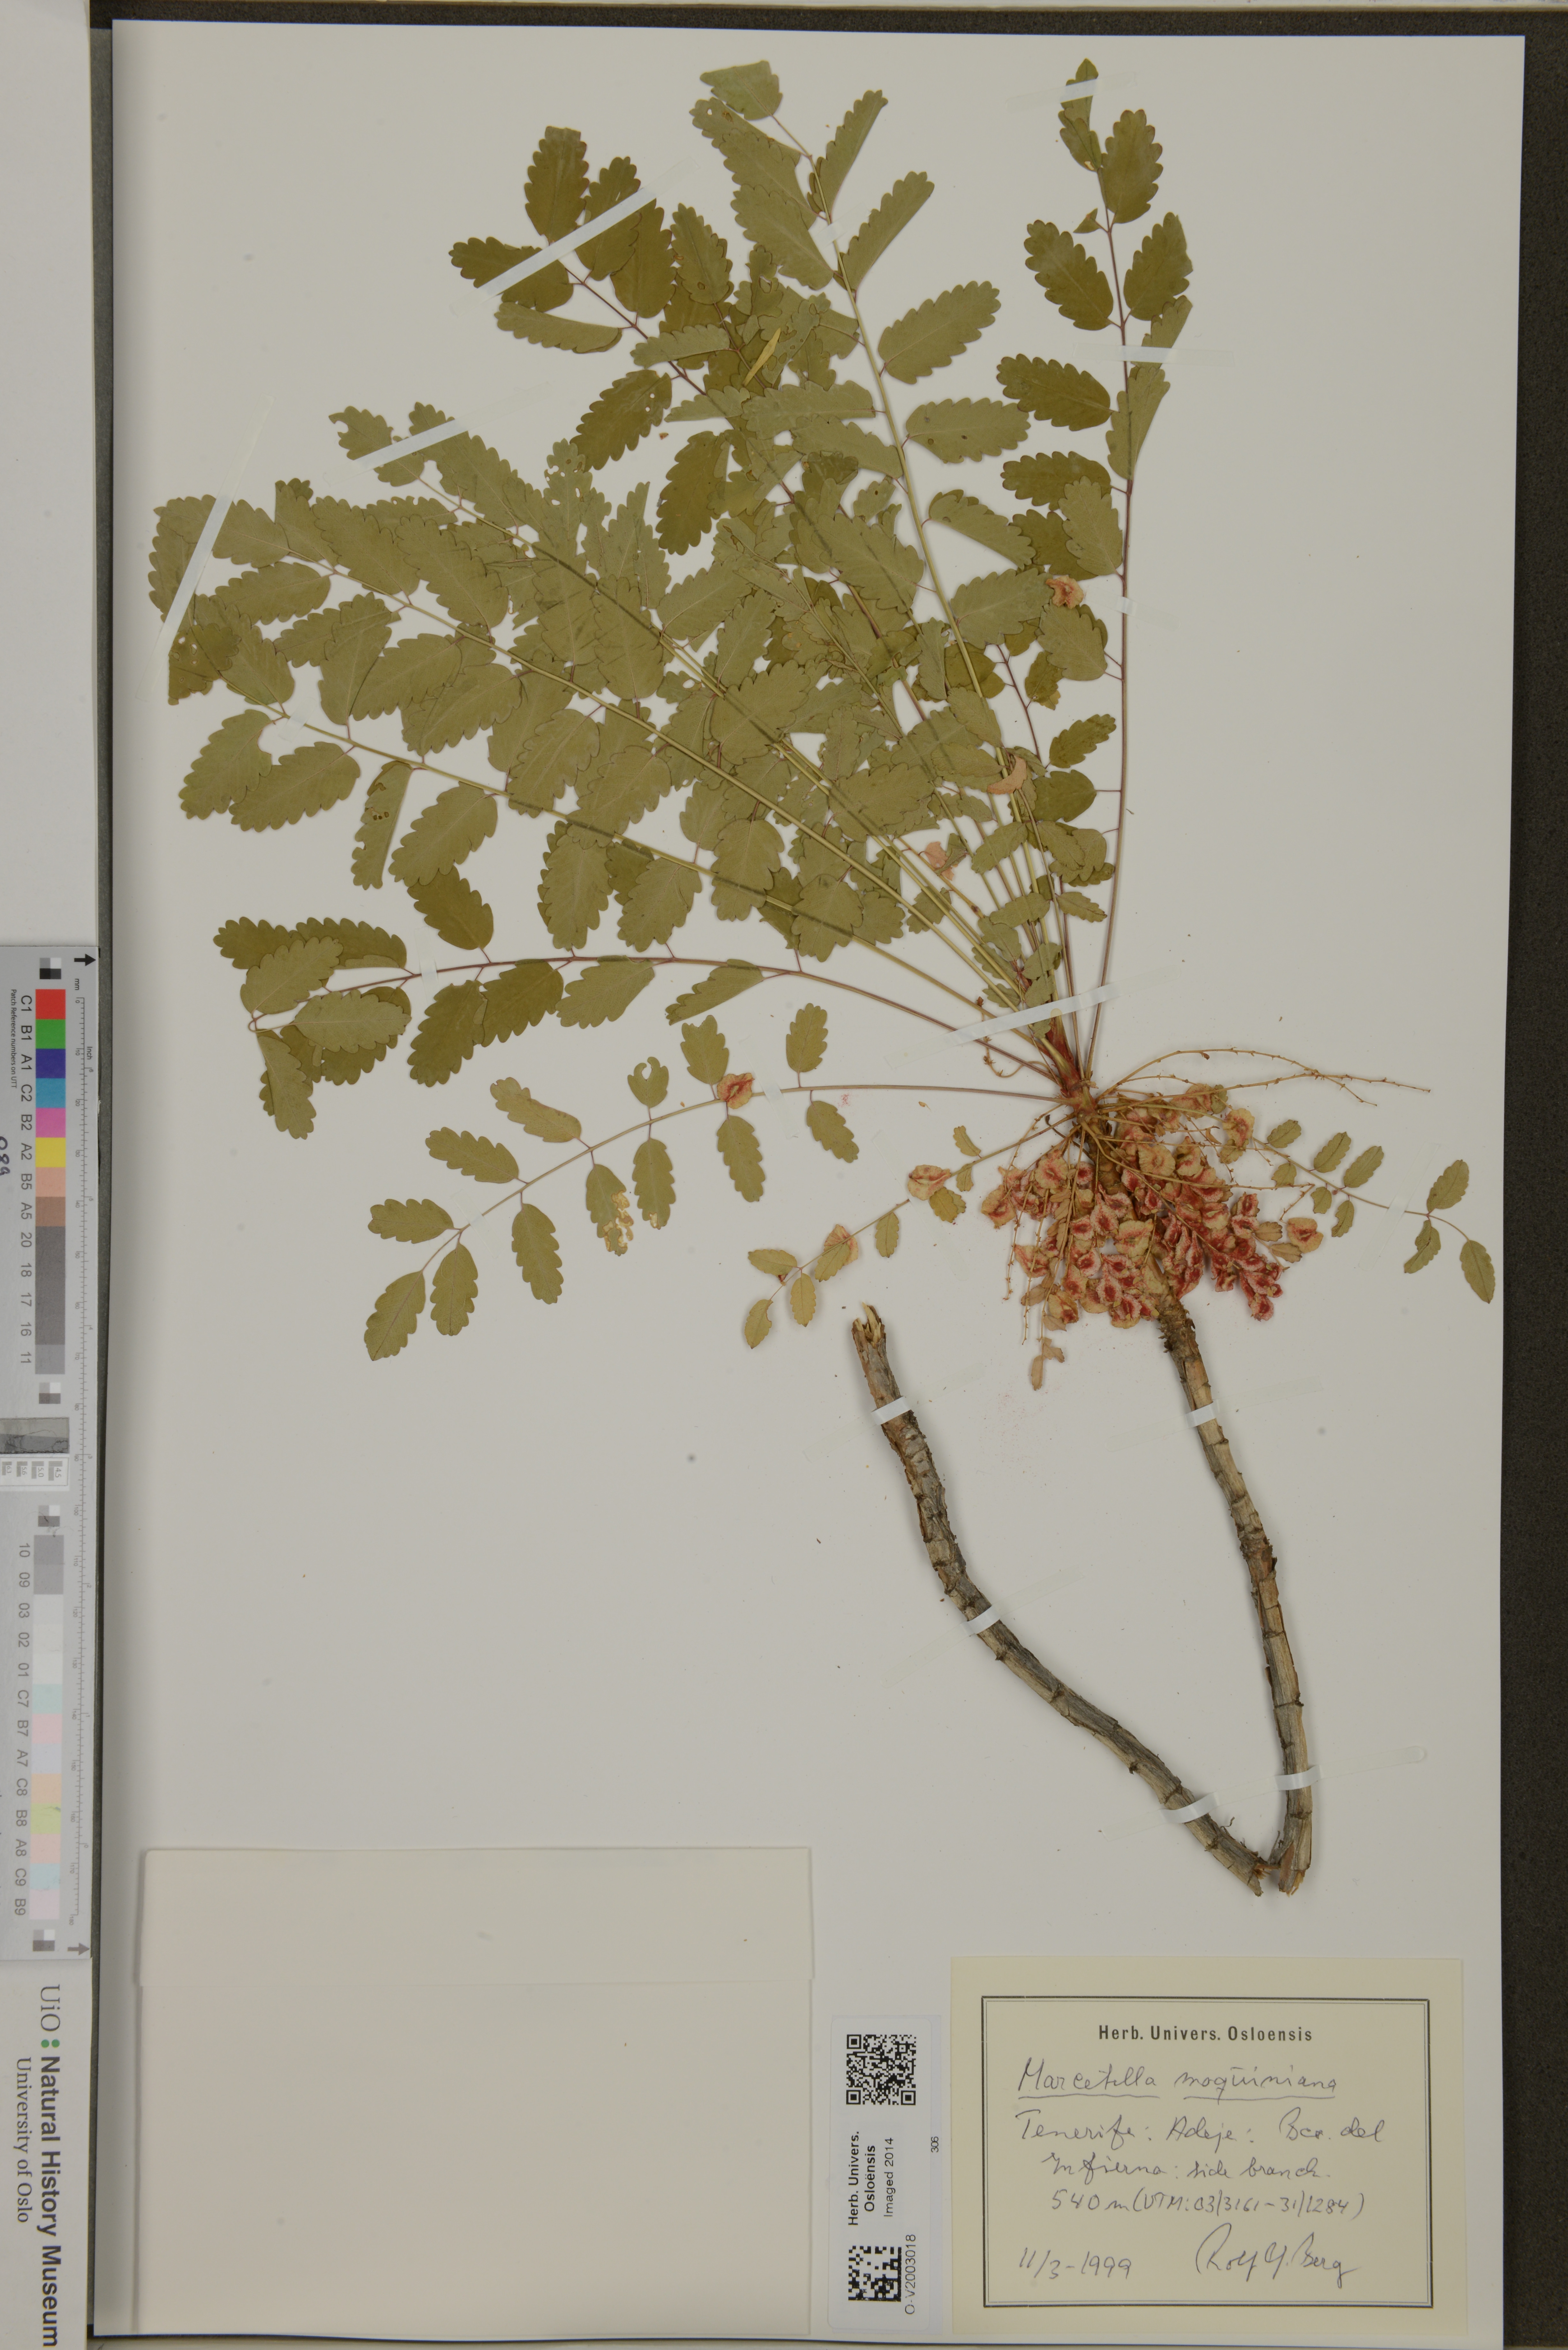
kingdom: Plantae
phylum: Tracheophyta
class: Magnoliopsida
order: Rosales
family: Rosaceae
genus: Marcetella
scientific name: Marcetella moquiniana
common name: Burnet tree
